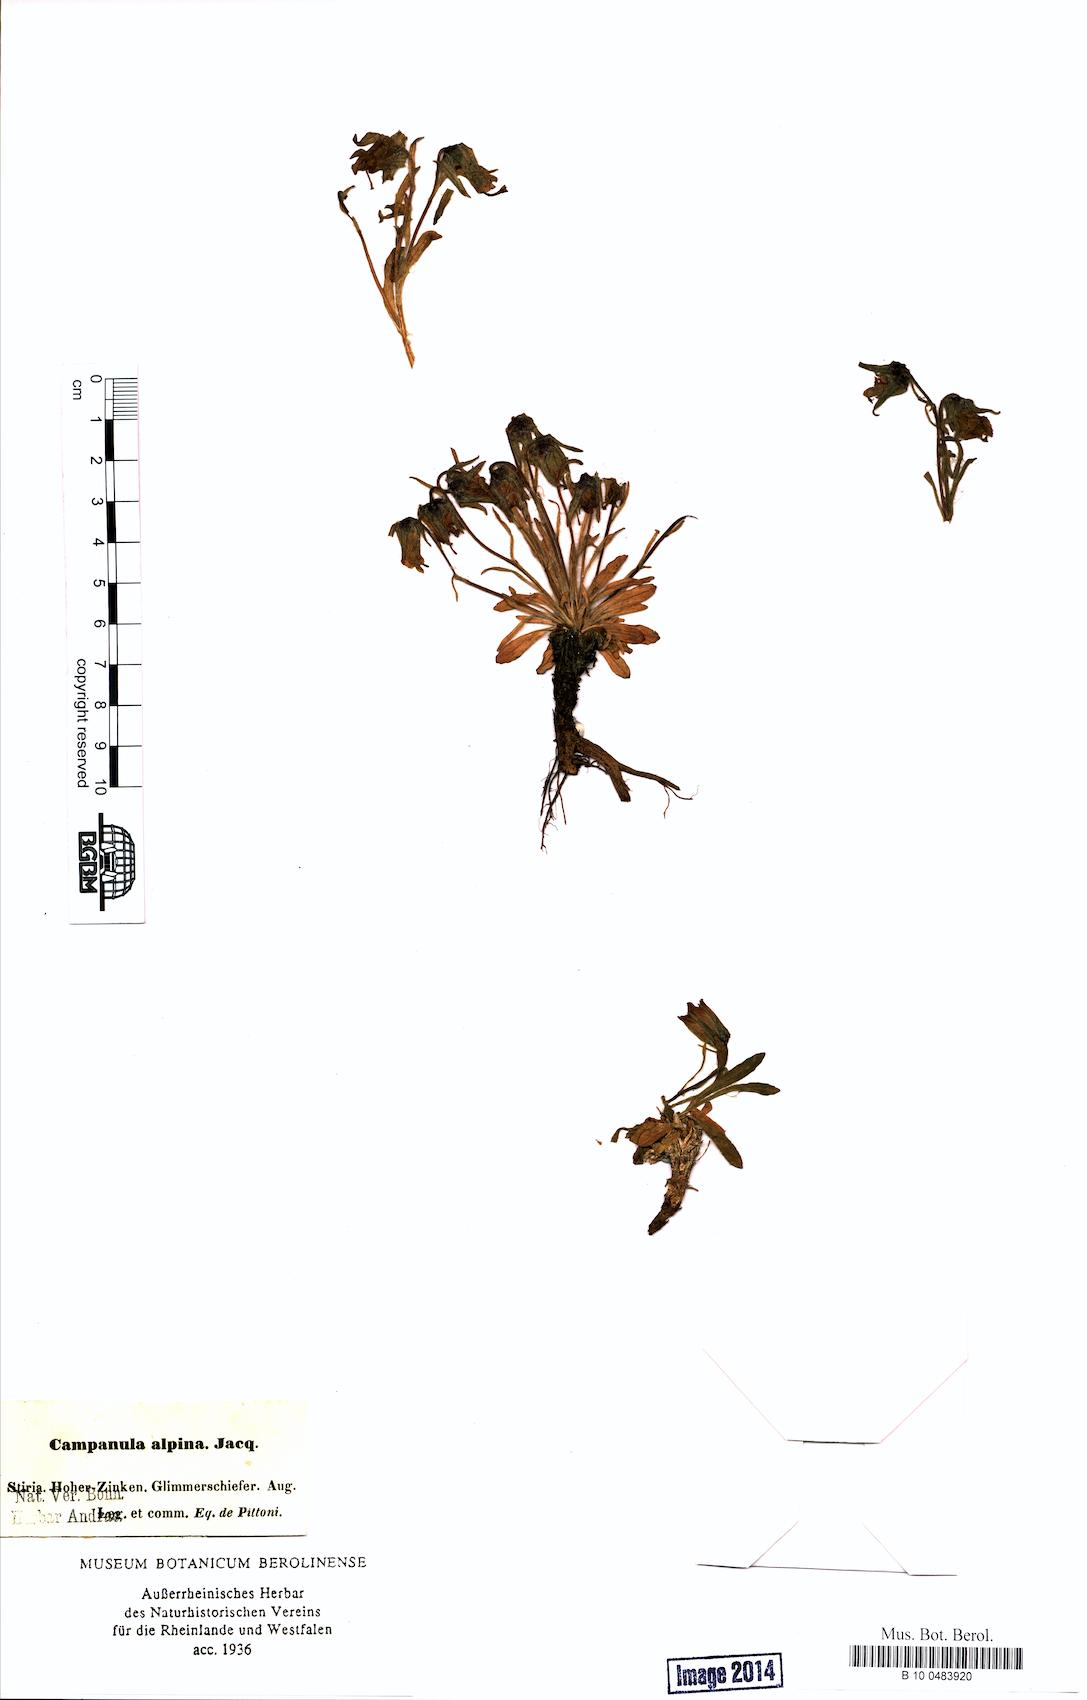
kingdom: Plantae
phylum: Tracheophyta
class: Magnoliopsida
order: Asterales
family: Campanulaceae
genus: Campanula
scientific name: Campanula alpina
